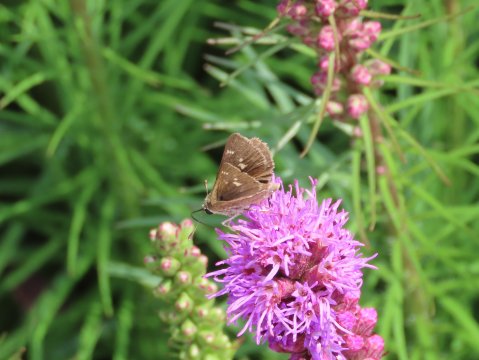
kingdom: Animalia
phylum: Arthropoda
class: Insecta
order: Lepidoptera
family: Hesperiidae
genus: Vernia
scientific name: Vernia verna
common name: Little Glassywing
